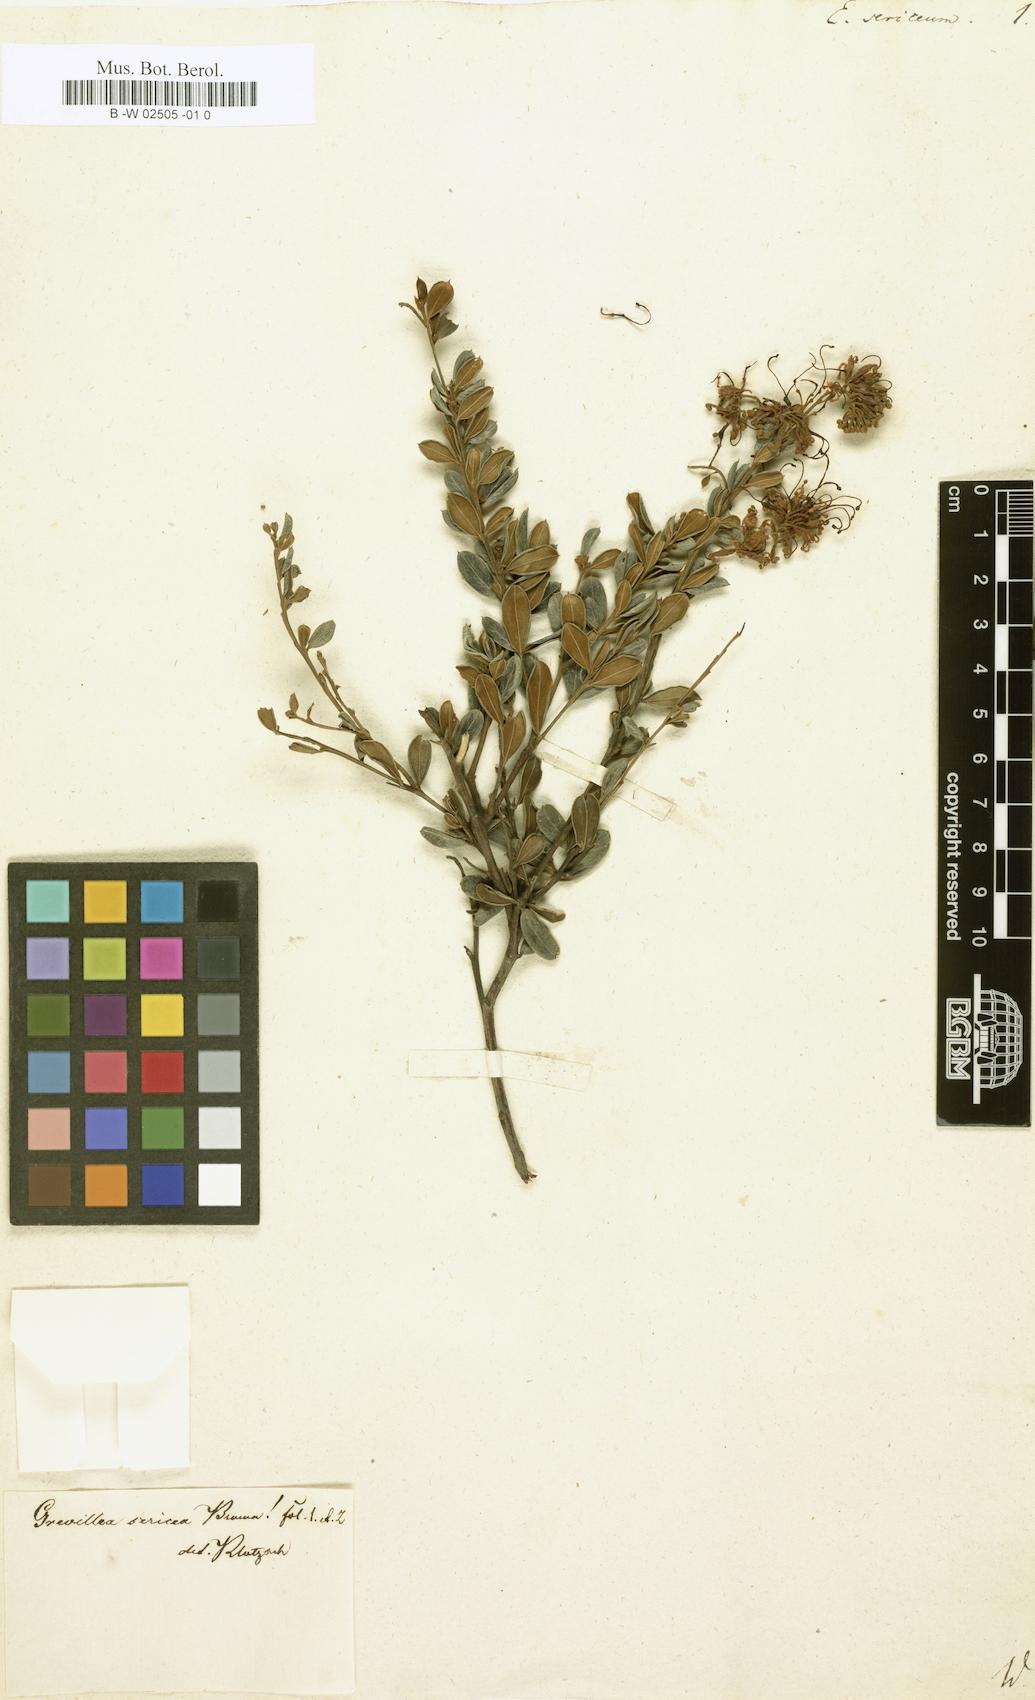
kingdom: Plantae
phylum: Tracheophyta
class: Magnoliopsida
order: Proteales
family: Proteaceae
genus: Grevillea
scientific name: Grevillea sericea
